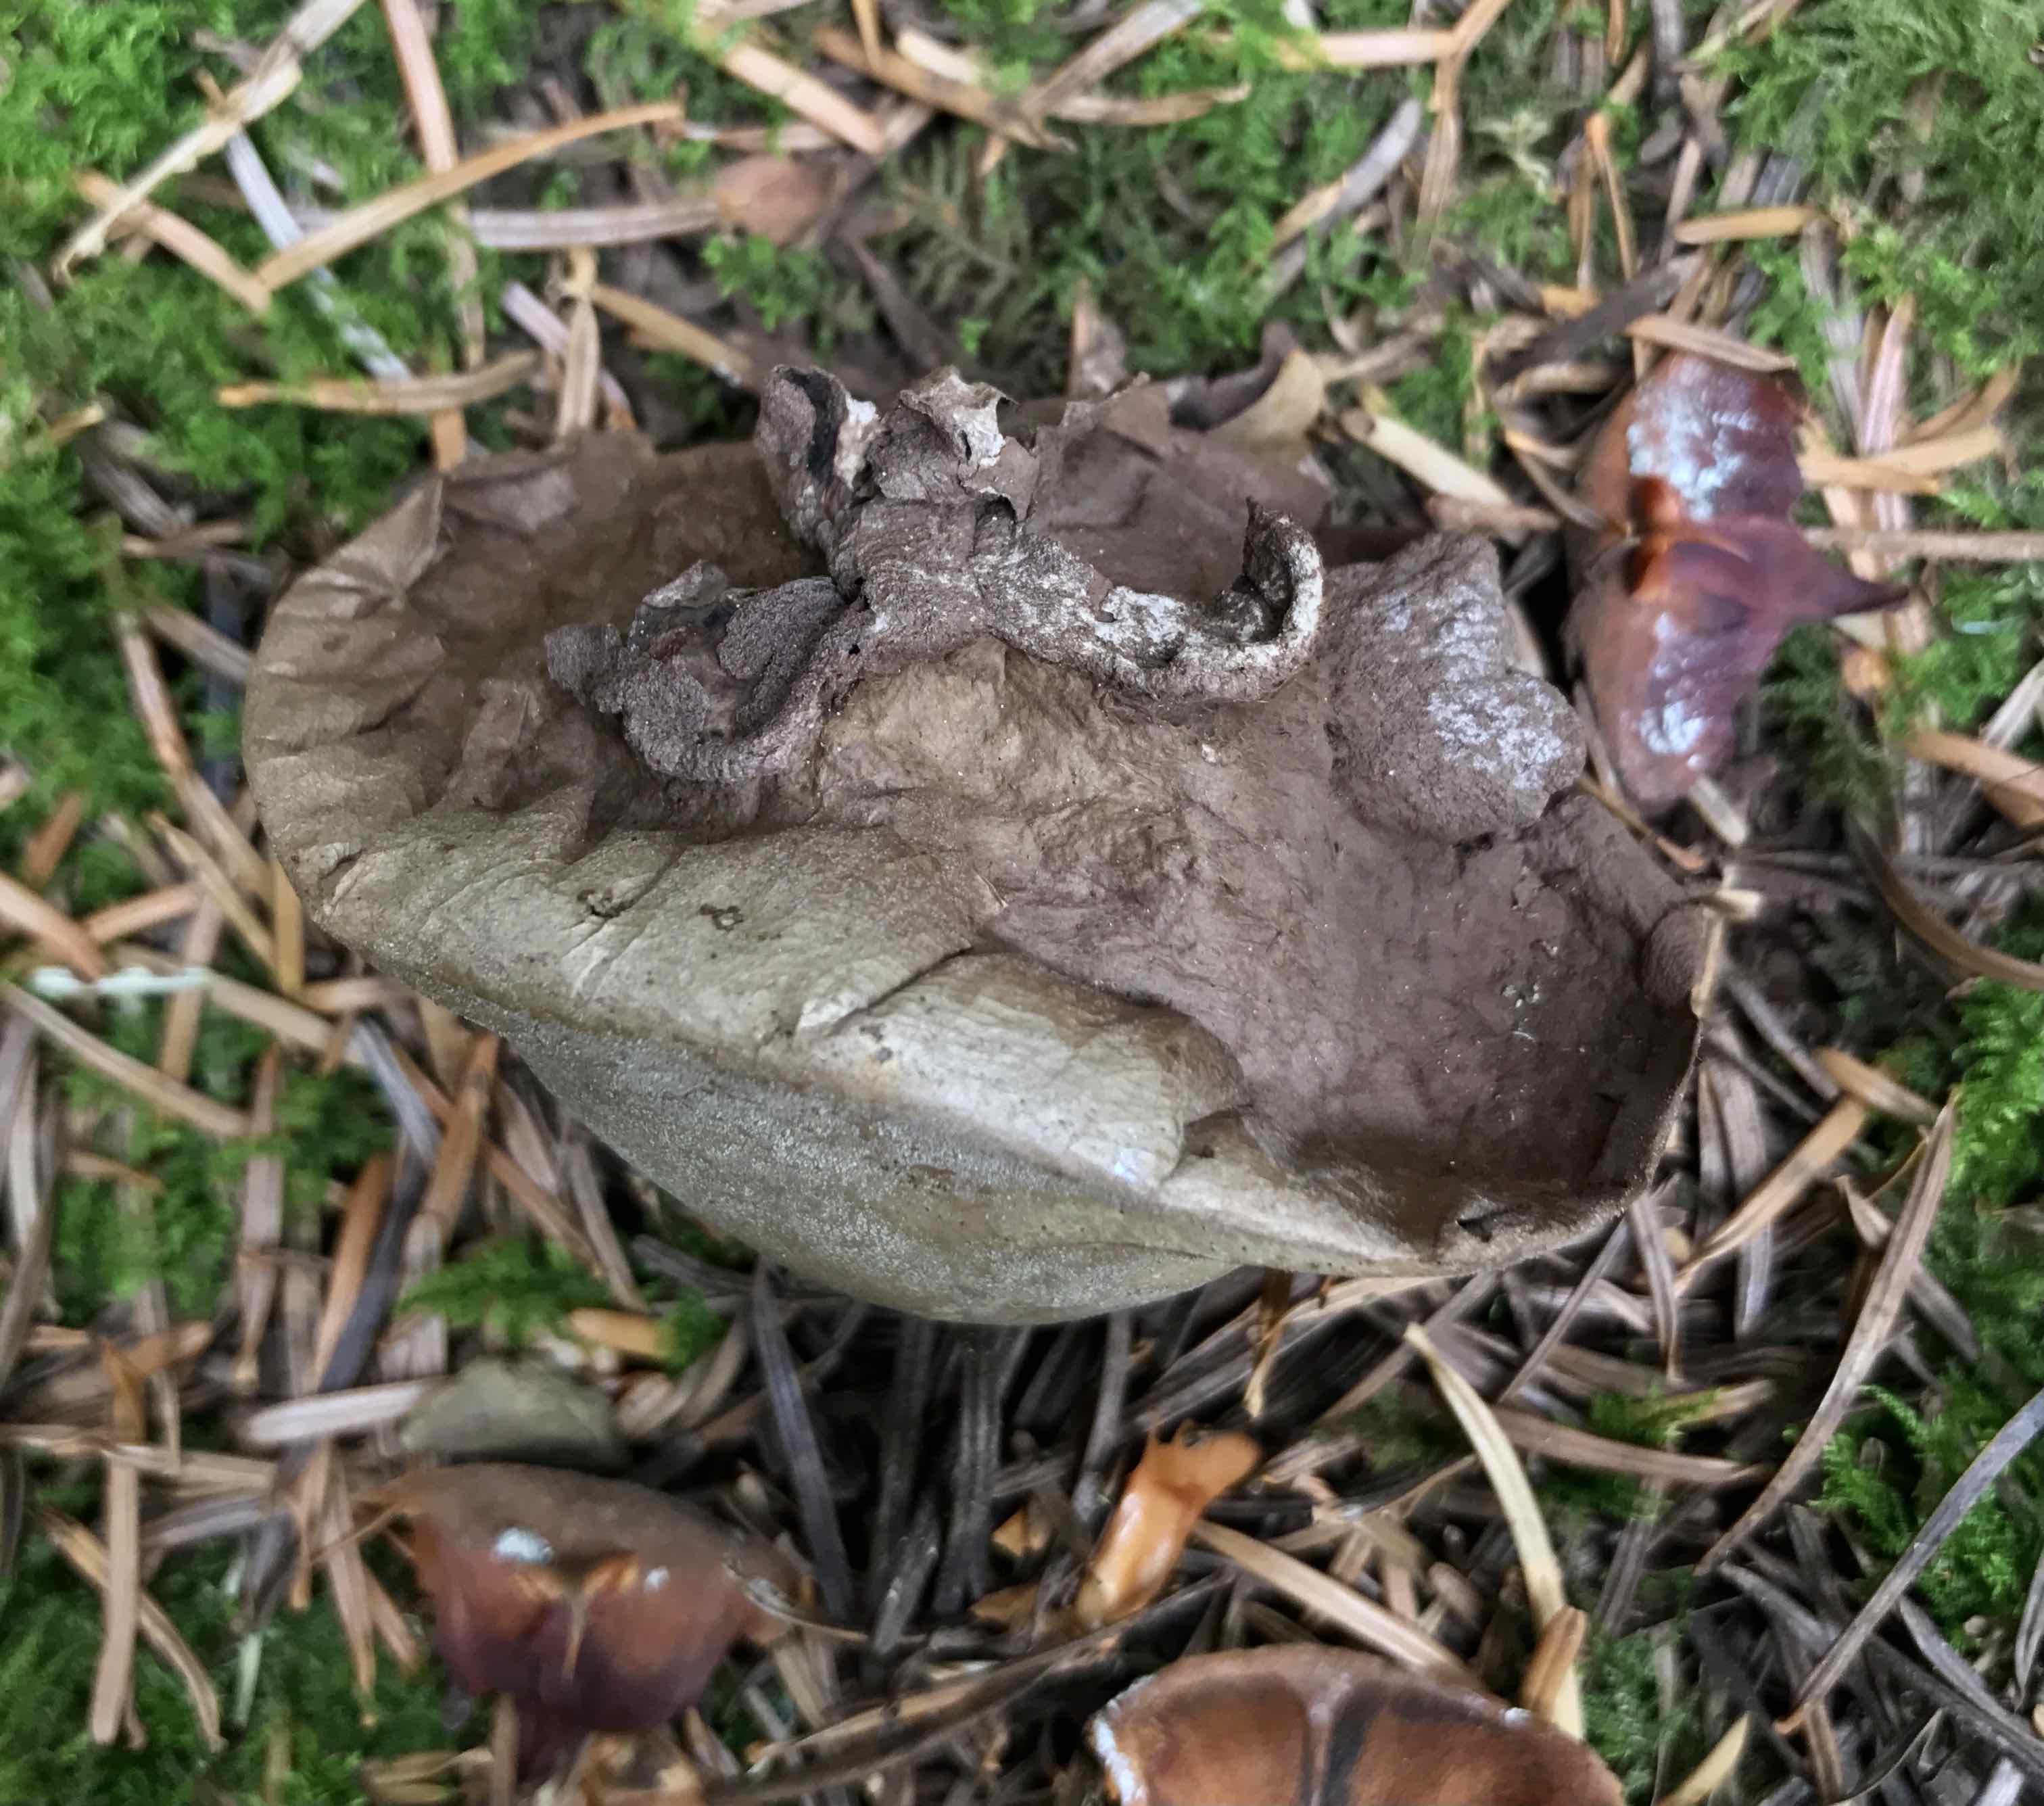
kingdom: Fungi
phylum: Basidiomycota
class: Agaricomycetes
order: Agaricales
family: Agaricaceae
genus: Lycoperdon
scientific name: Lycoperdon
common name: støvbold
